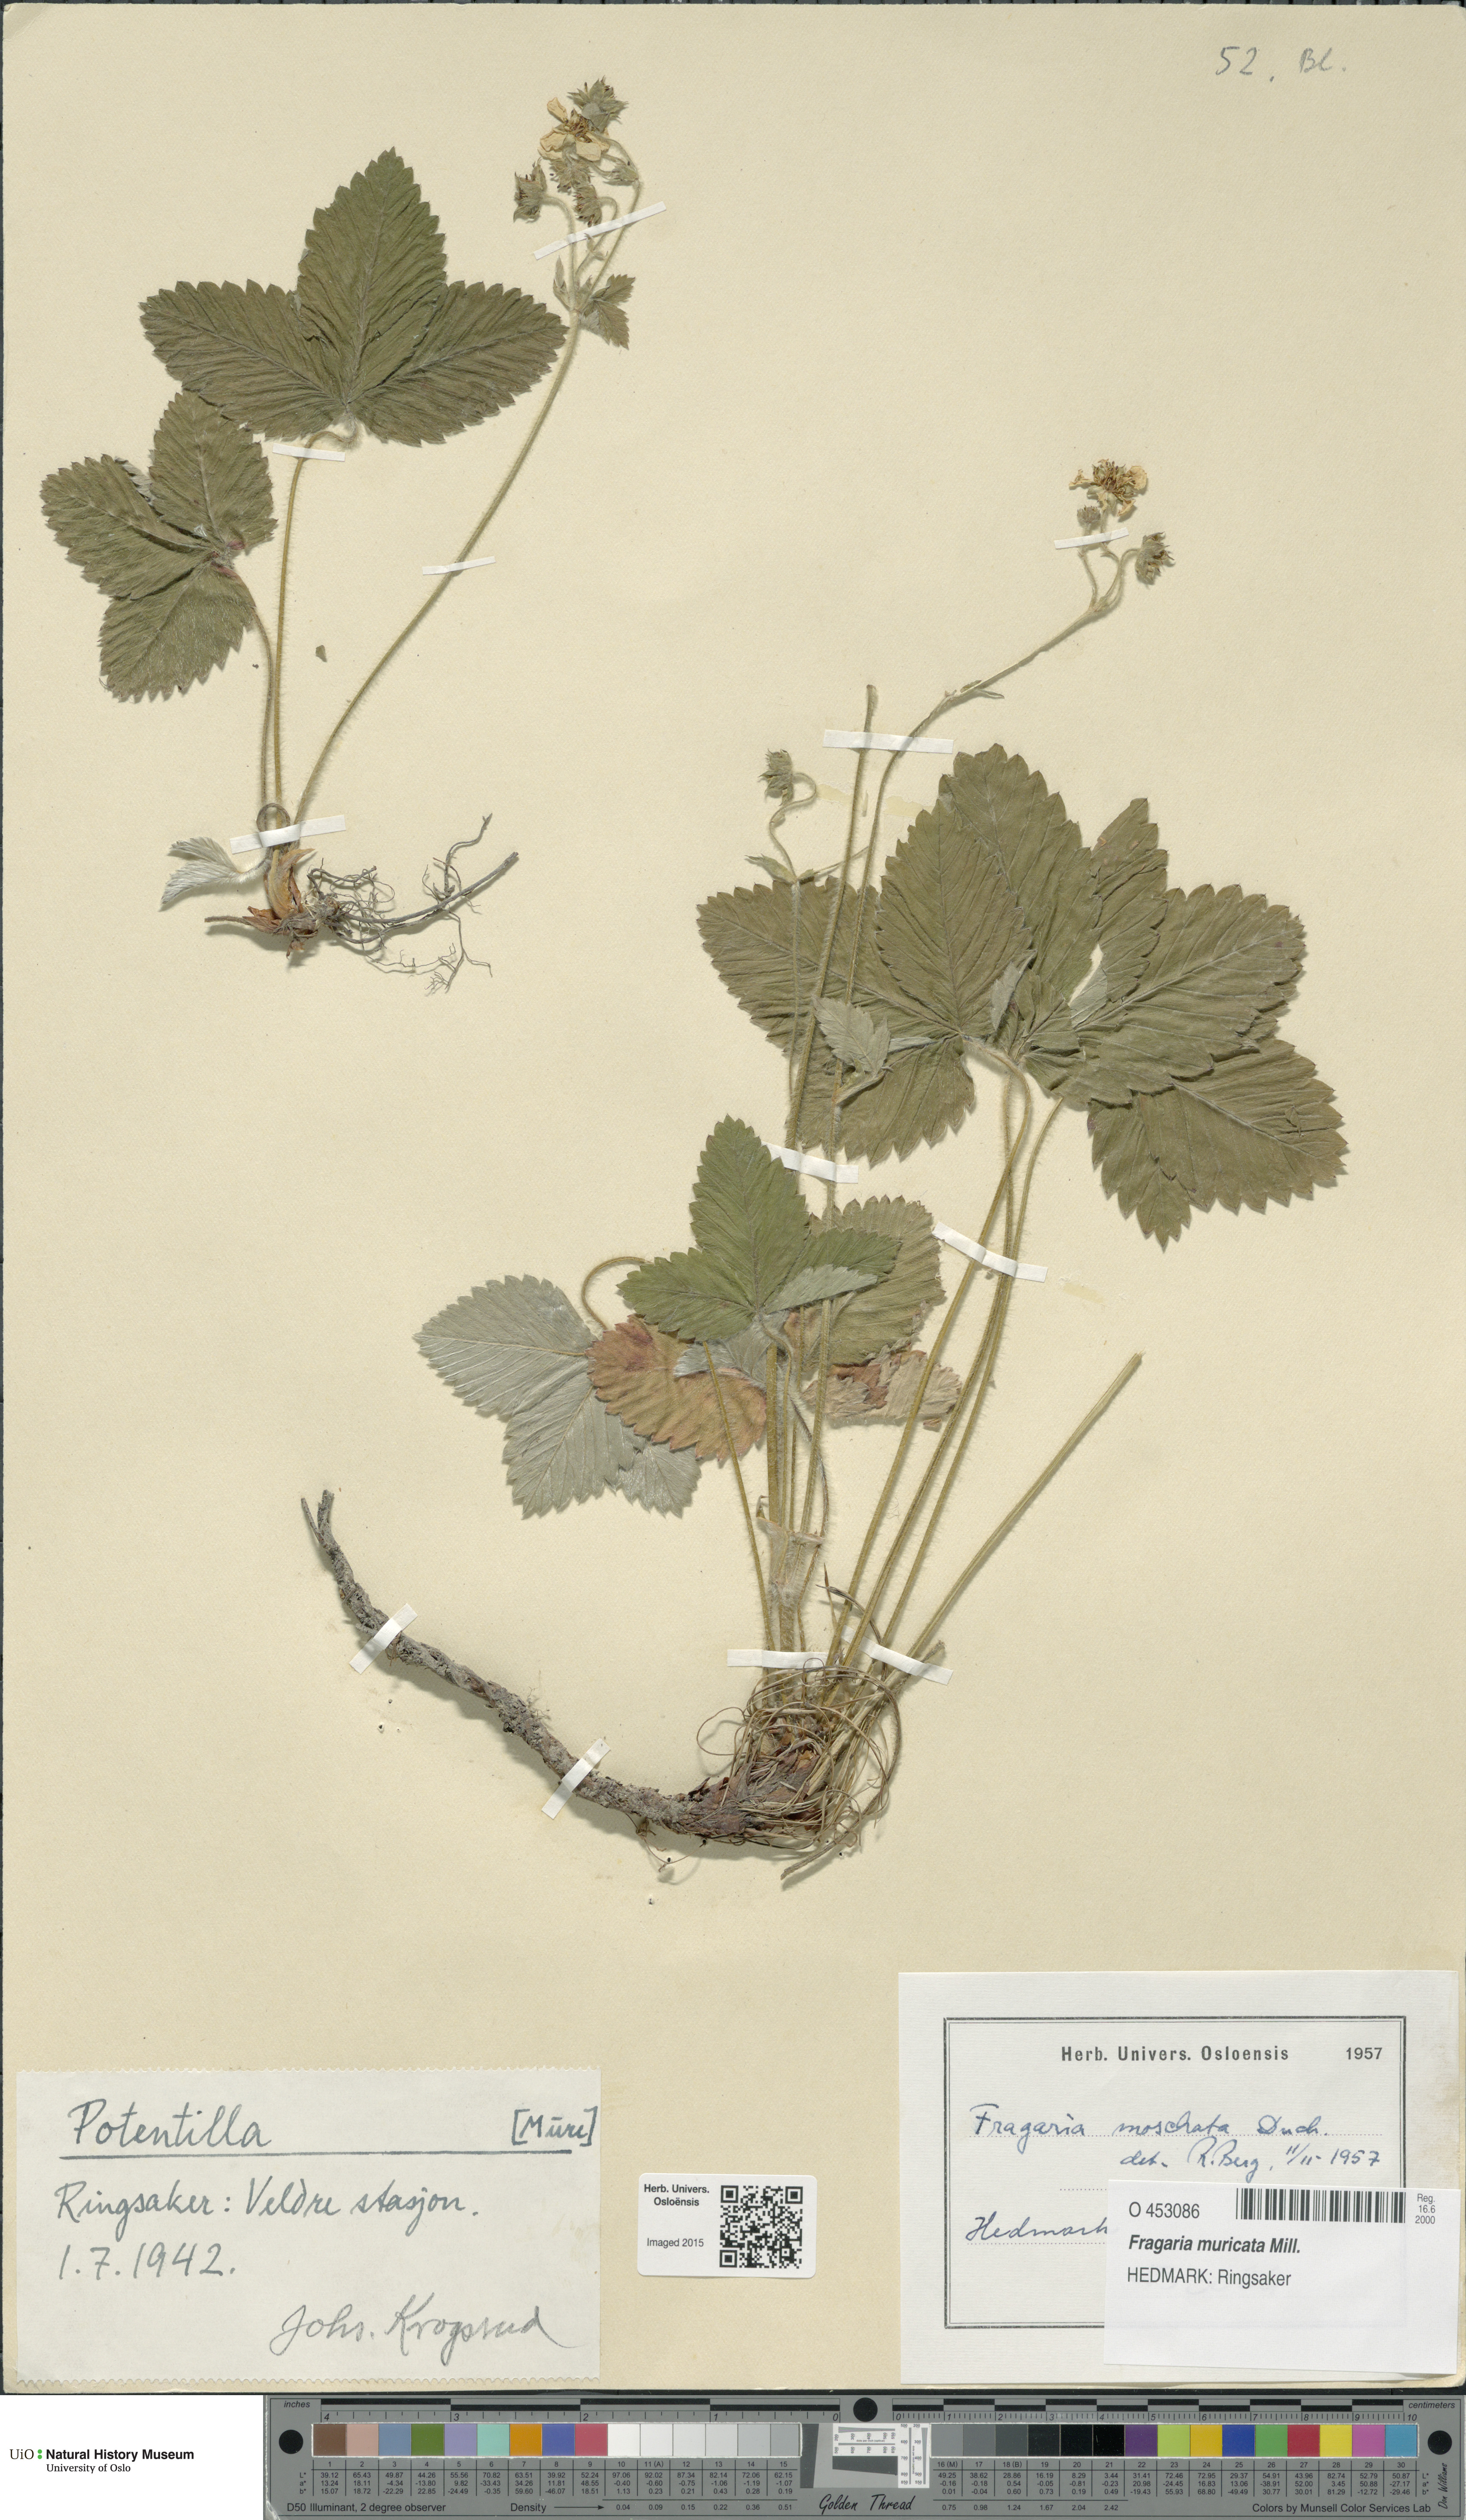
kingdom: Plantae
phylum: Tracheophyta
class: Magnoliopsida
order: Rosales
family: Rosaceae
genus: Fragaria
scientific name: Fragaria moschata
